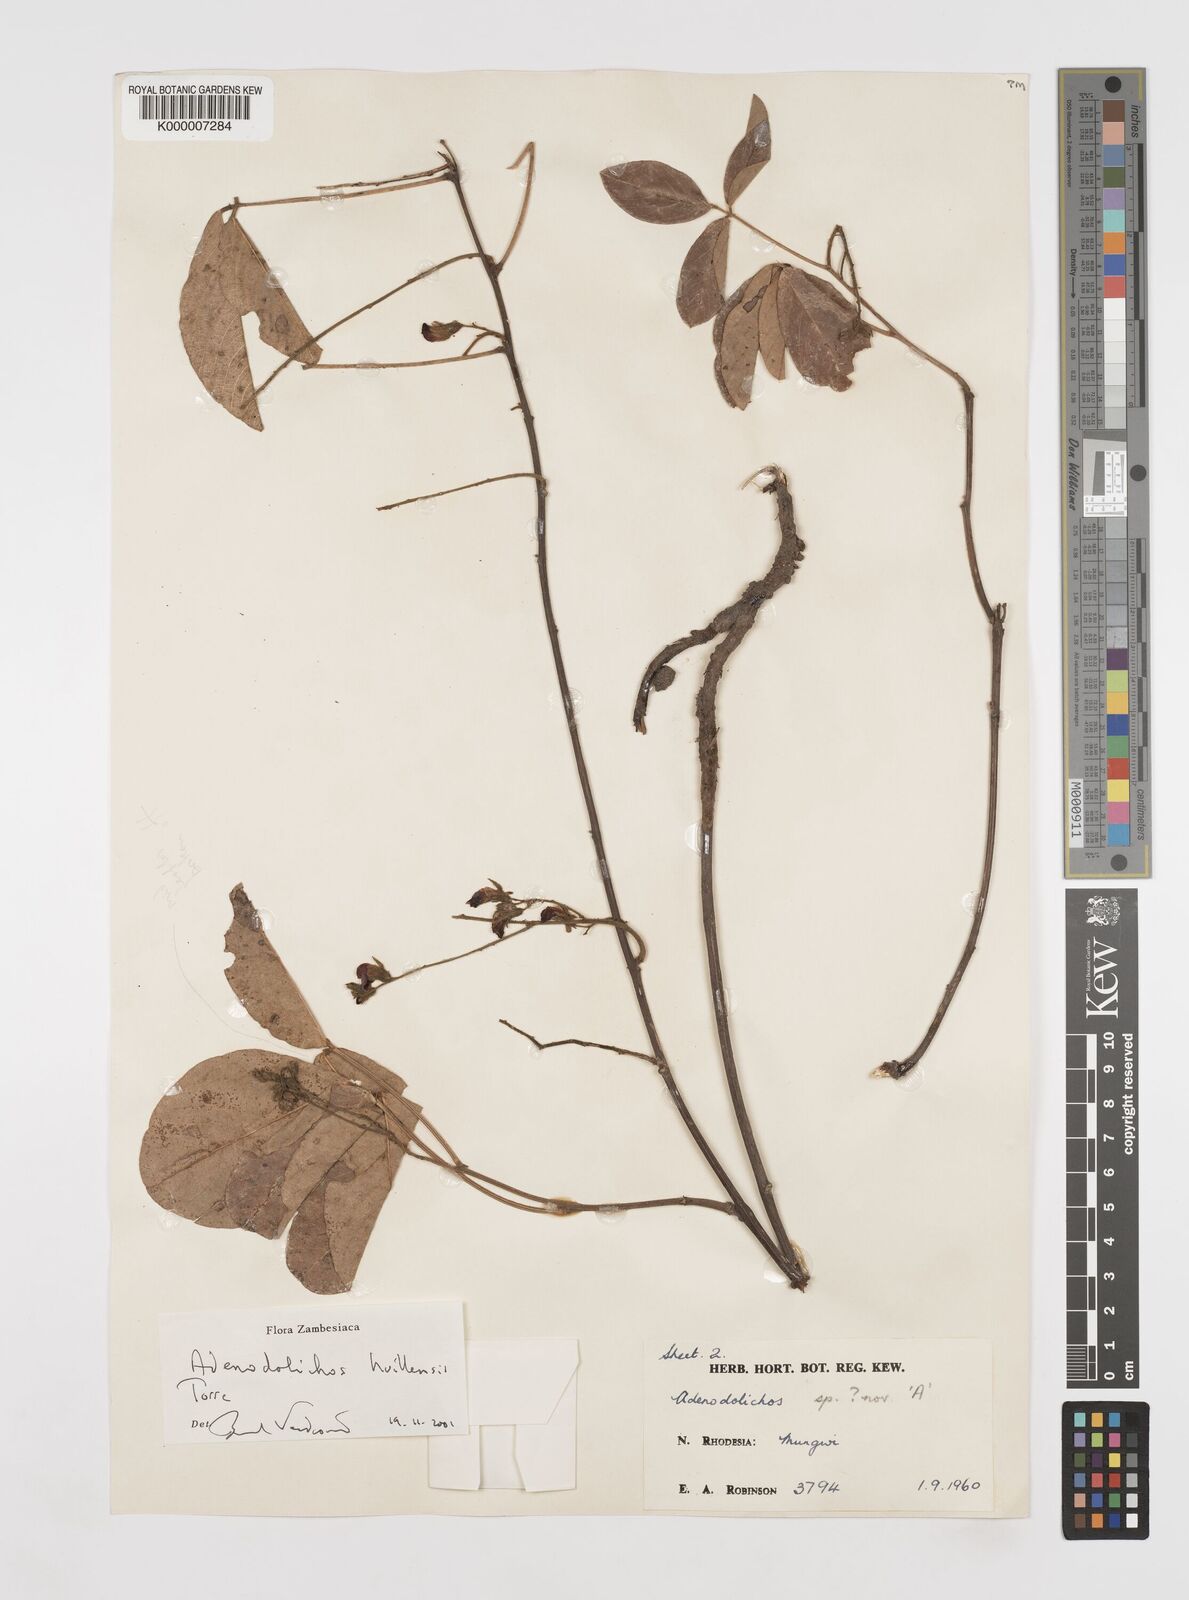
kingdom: Plantae
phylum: Tracheophyta
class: Magnoliopsida
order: Fabales
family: Fabaceae
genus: Adenodolichos
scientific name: Adenodolichos huillensis
